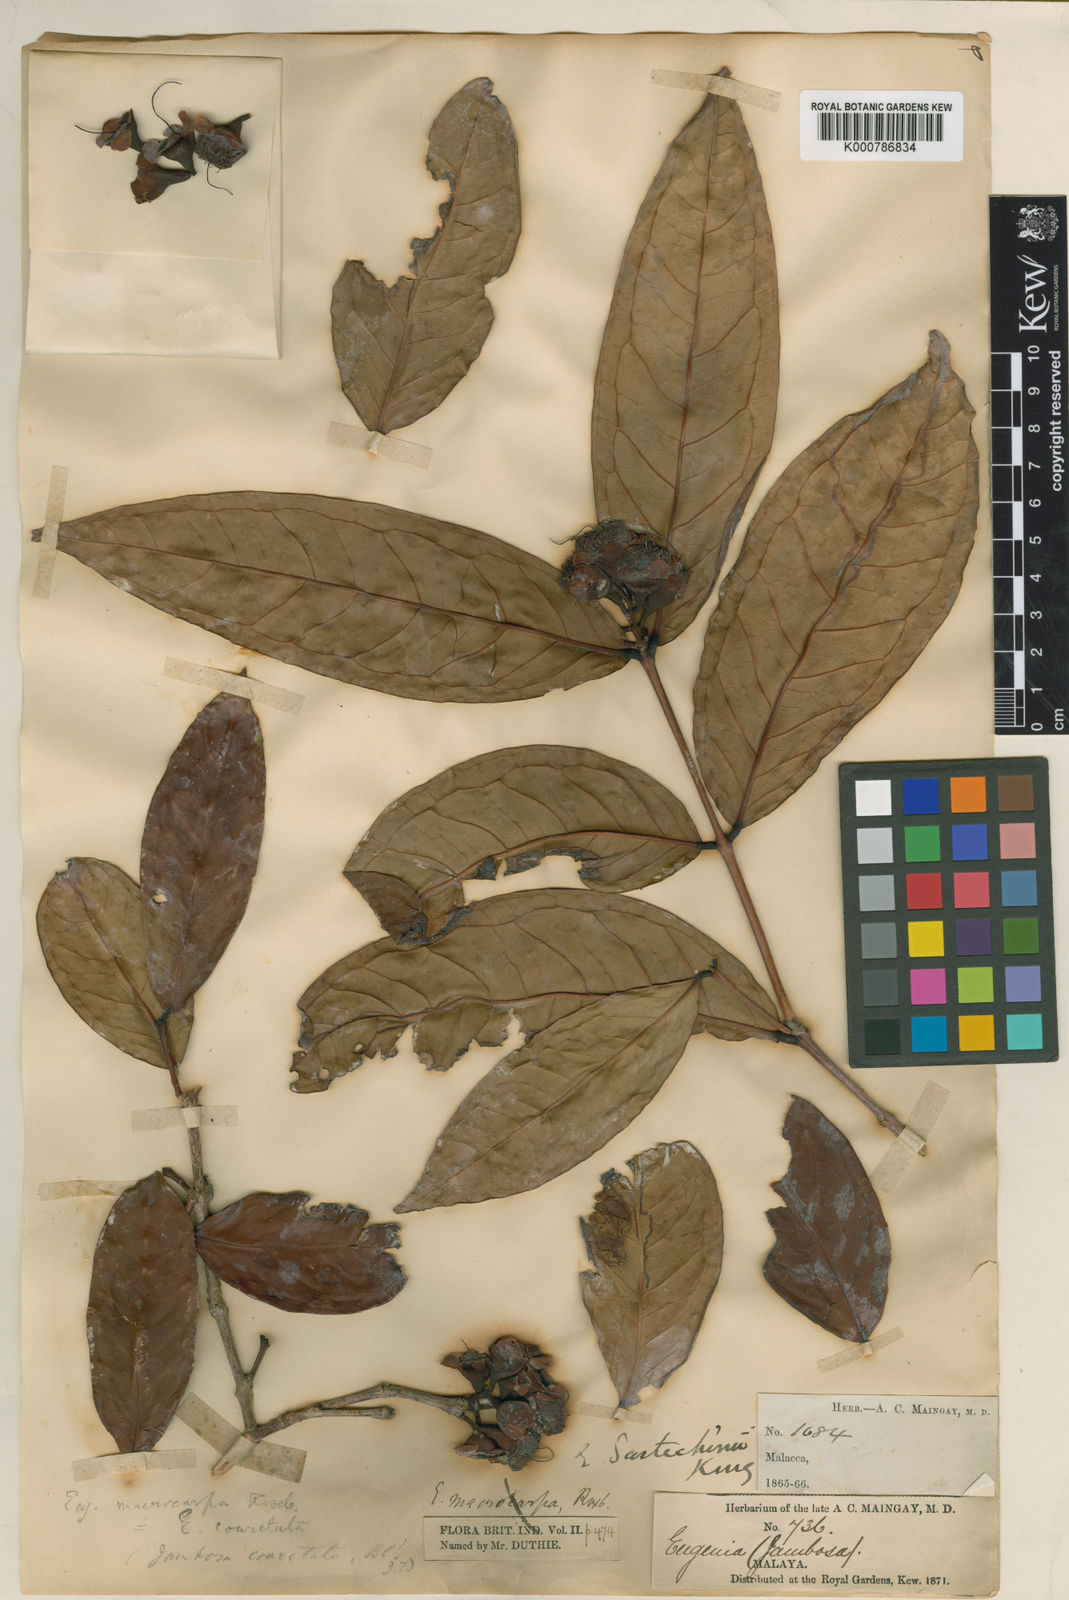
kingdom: Plantae
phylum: Tracheophyta
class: Magnoliopsida
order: Myrtales
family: Myrtaceae
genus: Syzygium
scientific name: Syzygium scortechinii
